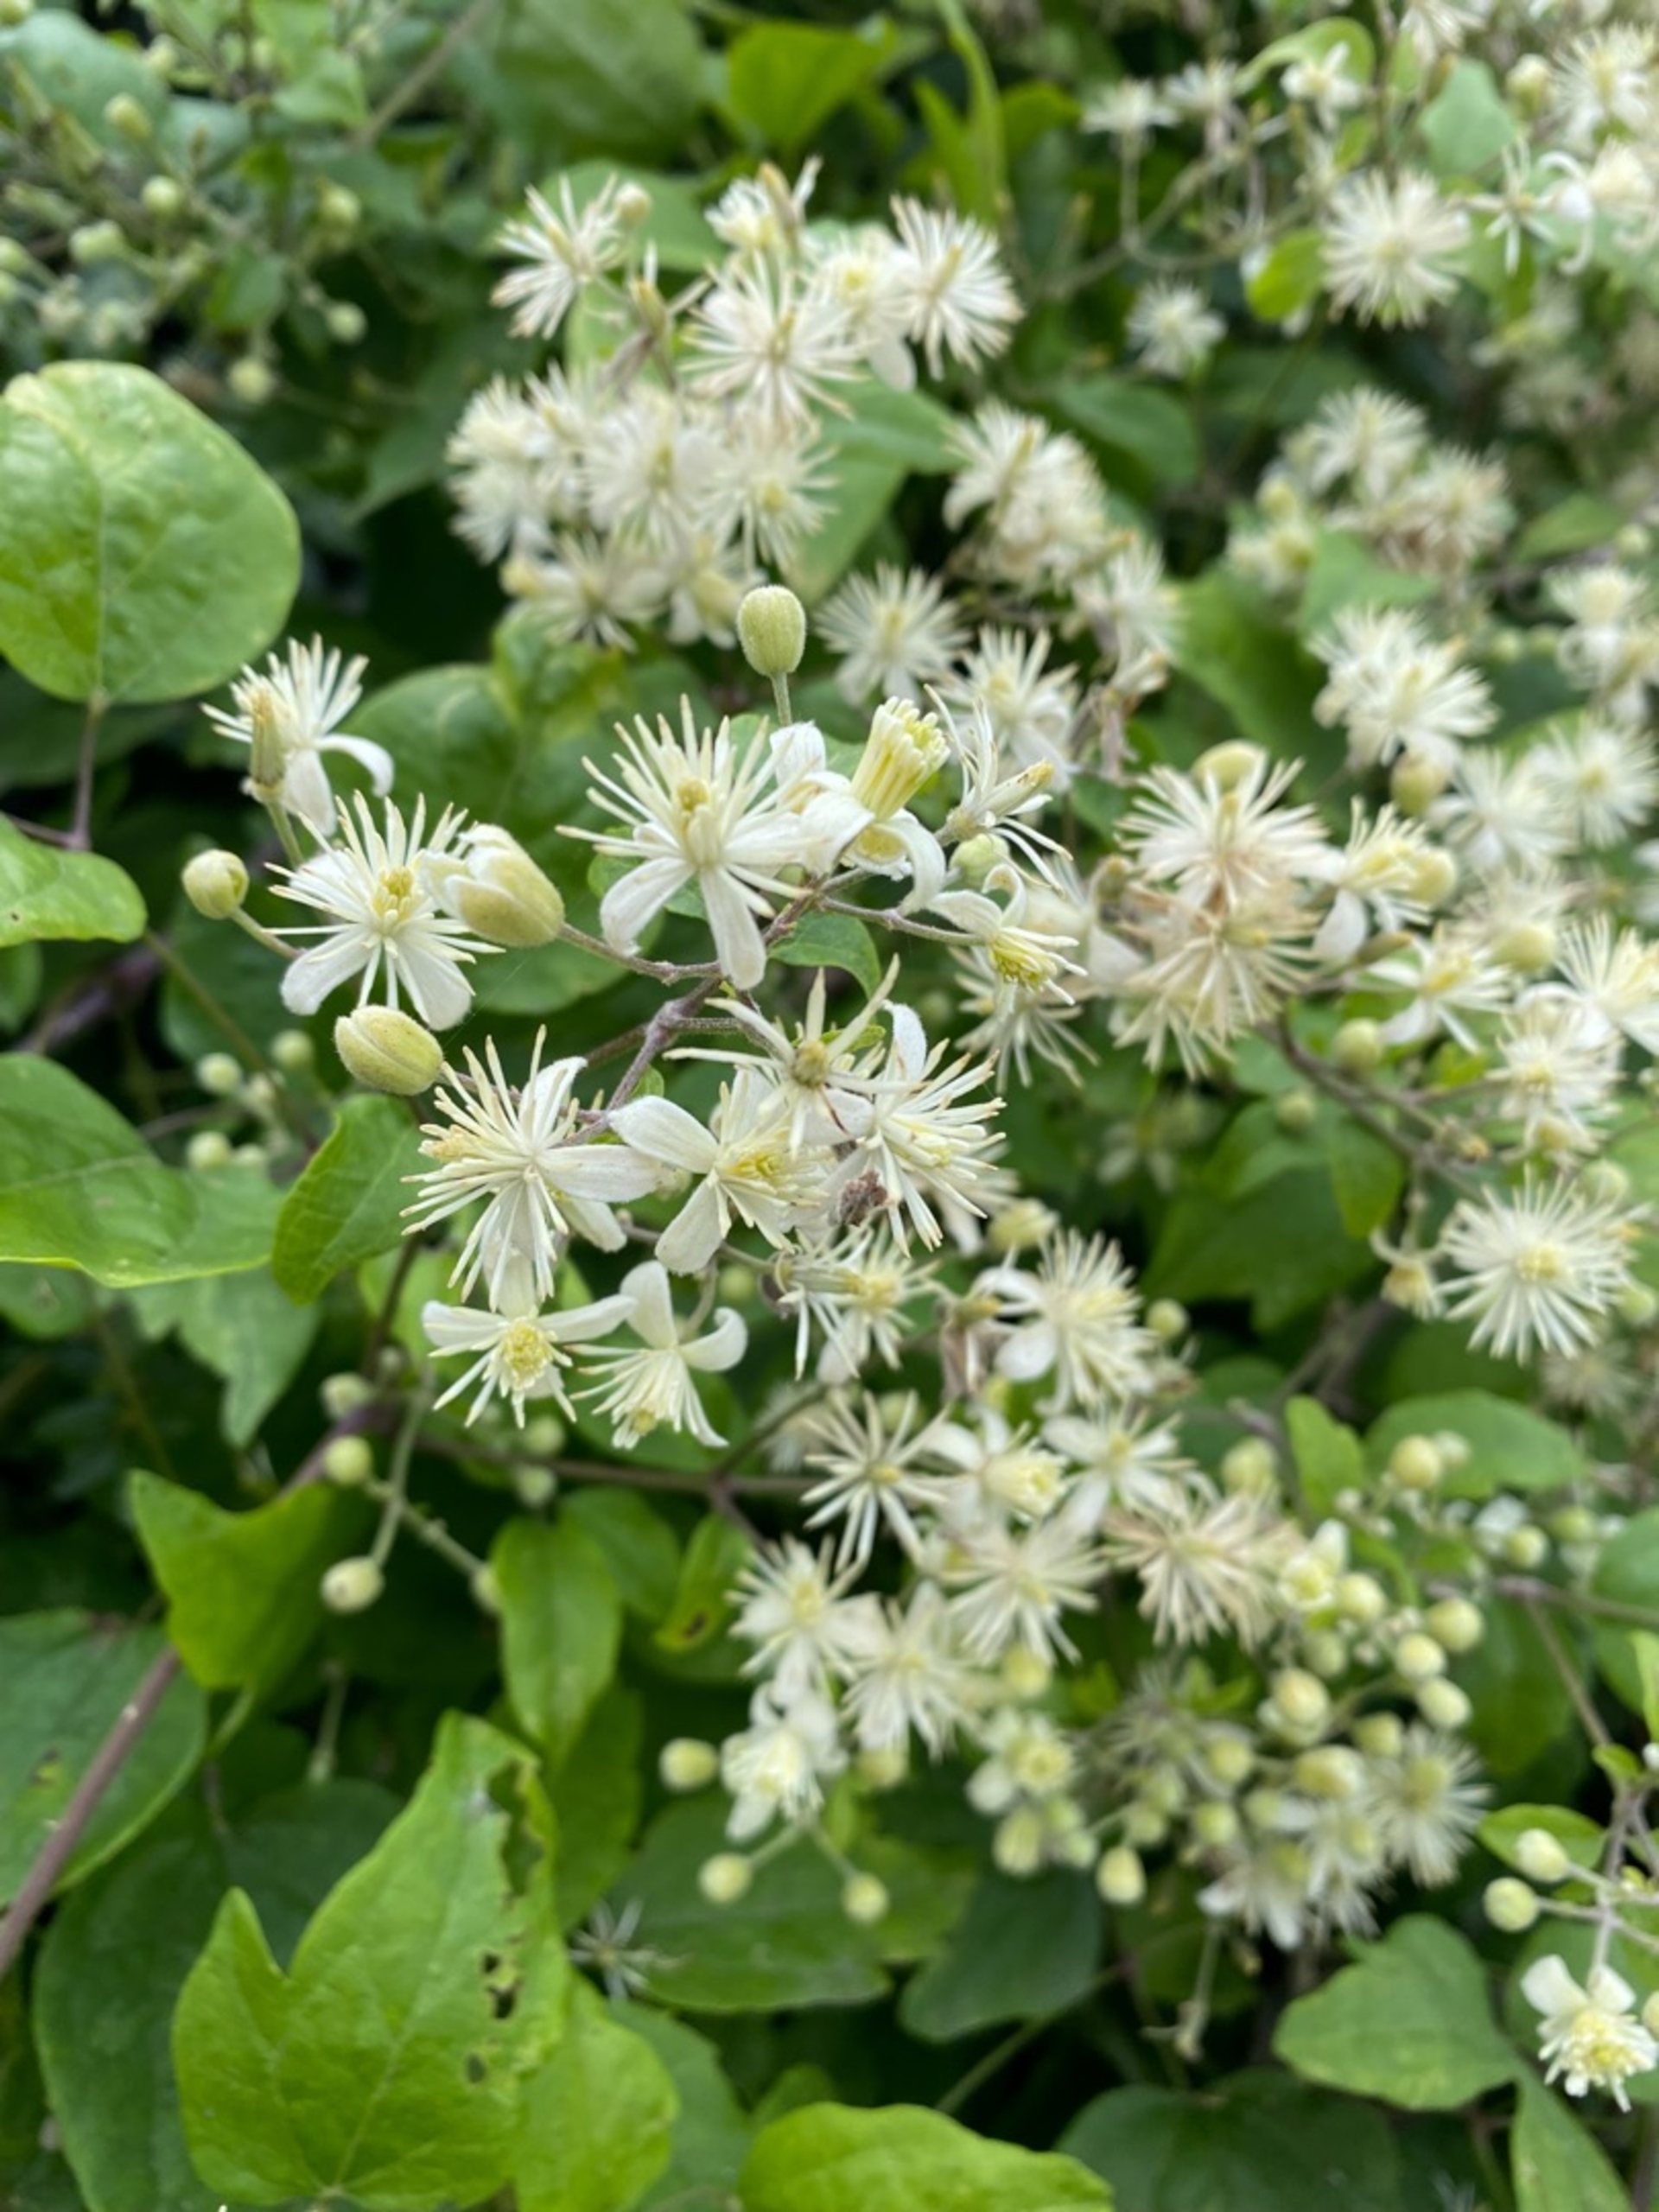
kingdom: Plantae
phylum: Tracheophyta
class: Magnoliopsida
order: Ranunculales
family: Ranunculaceae
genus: Clematis
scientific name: Clematis vitalba
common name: Skovranke
